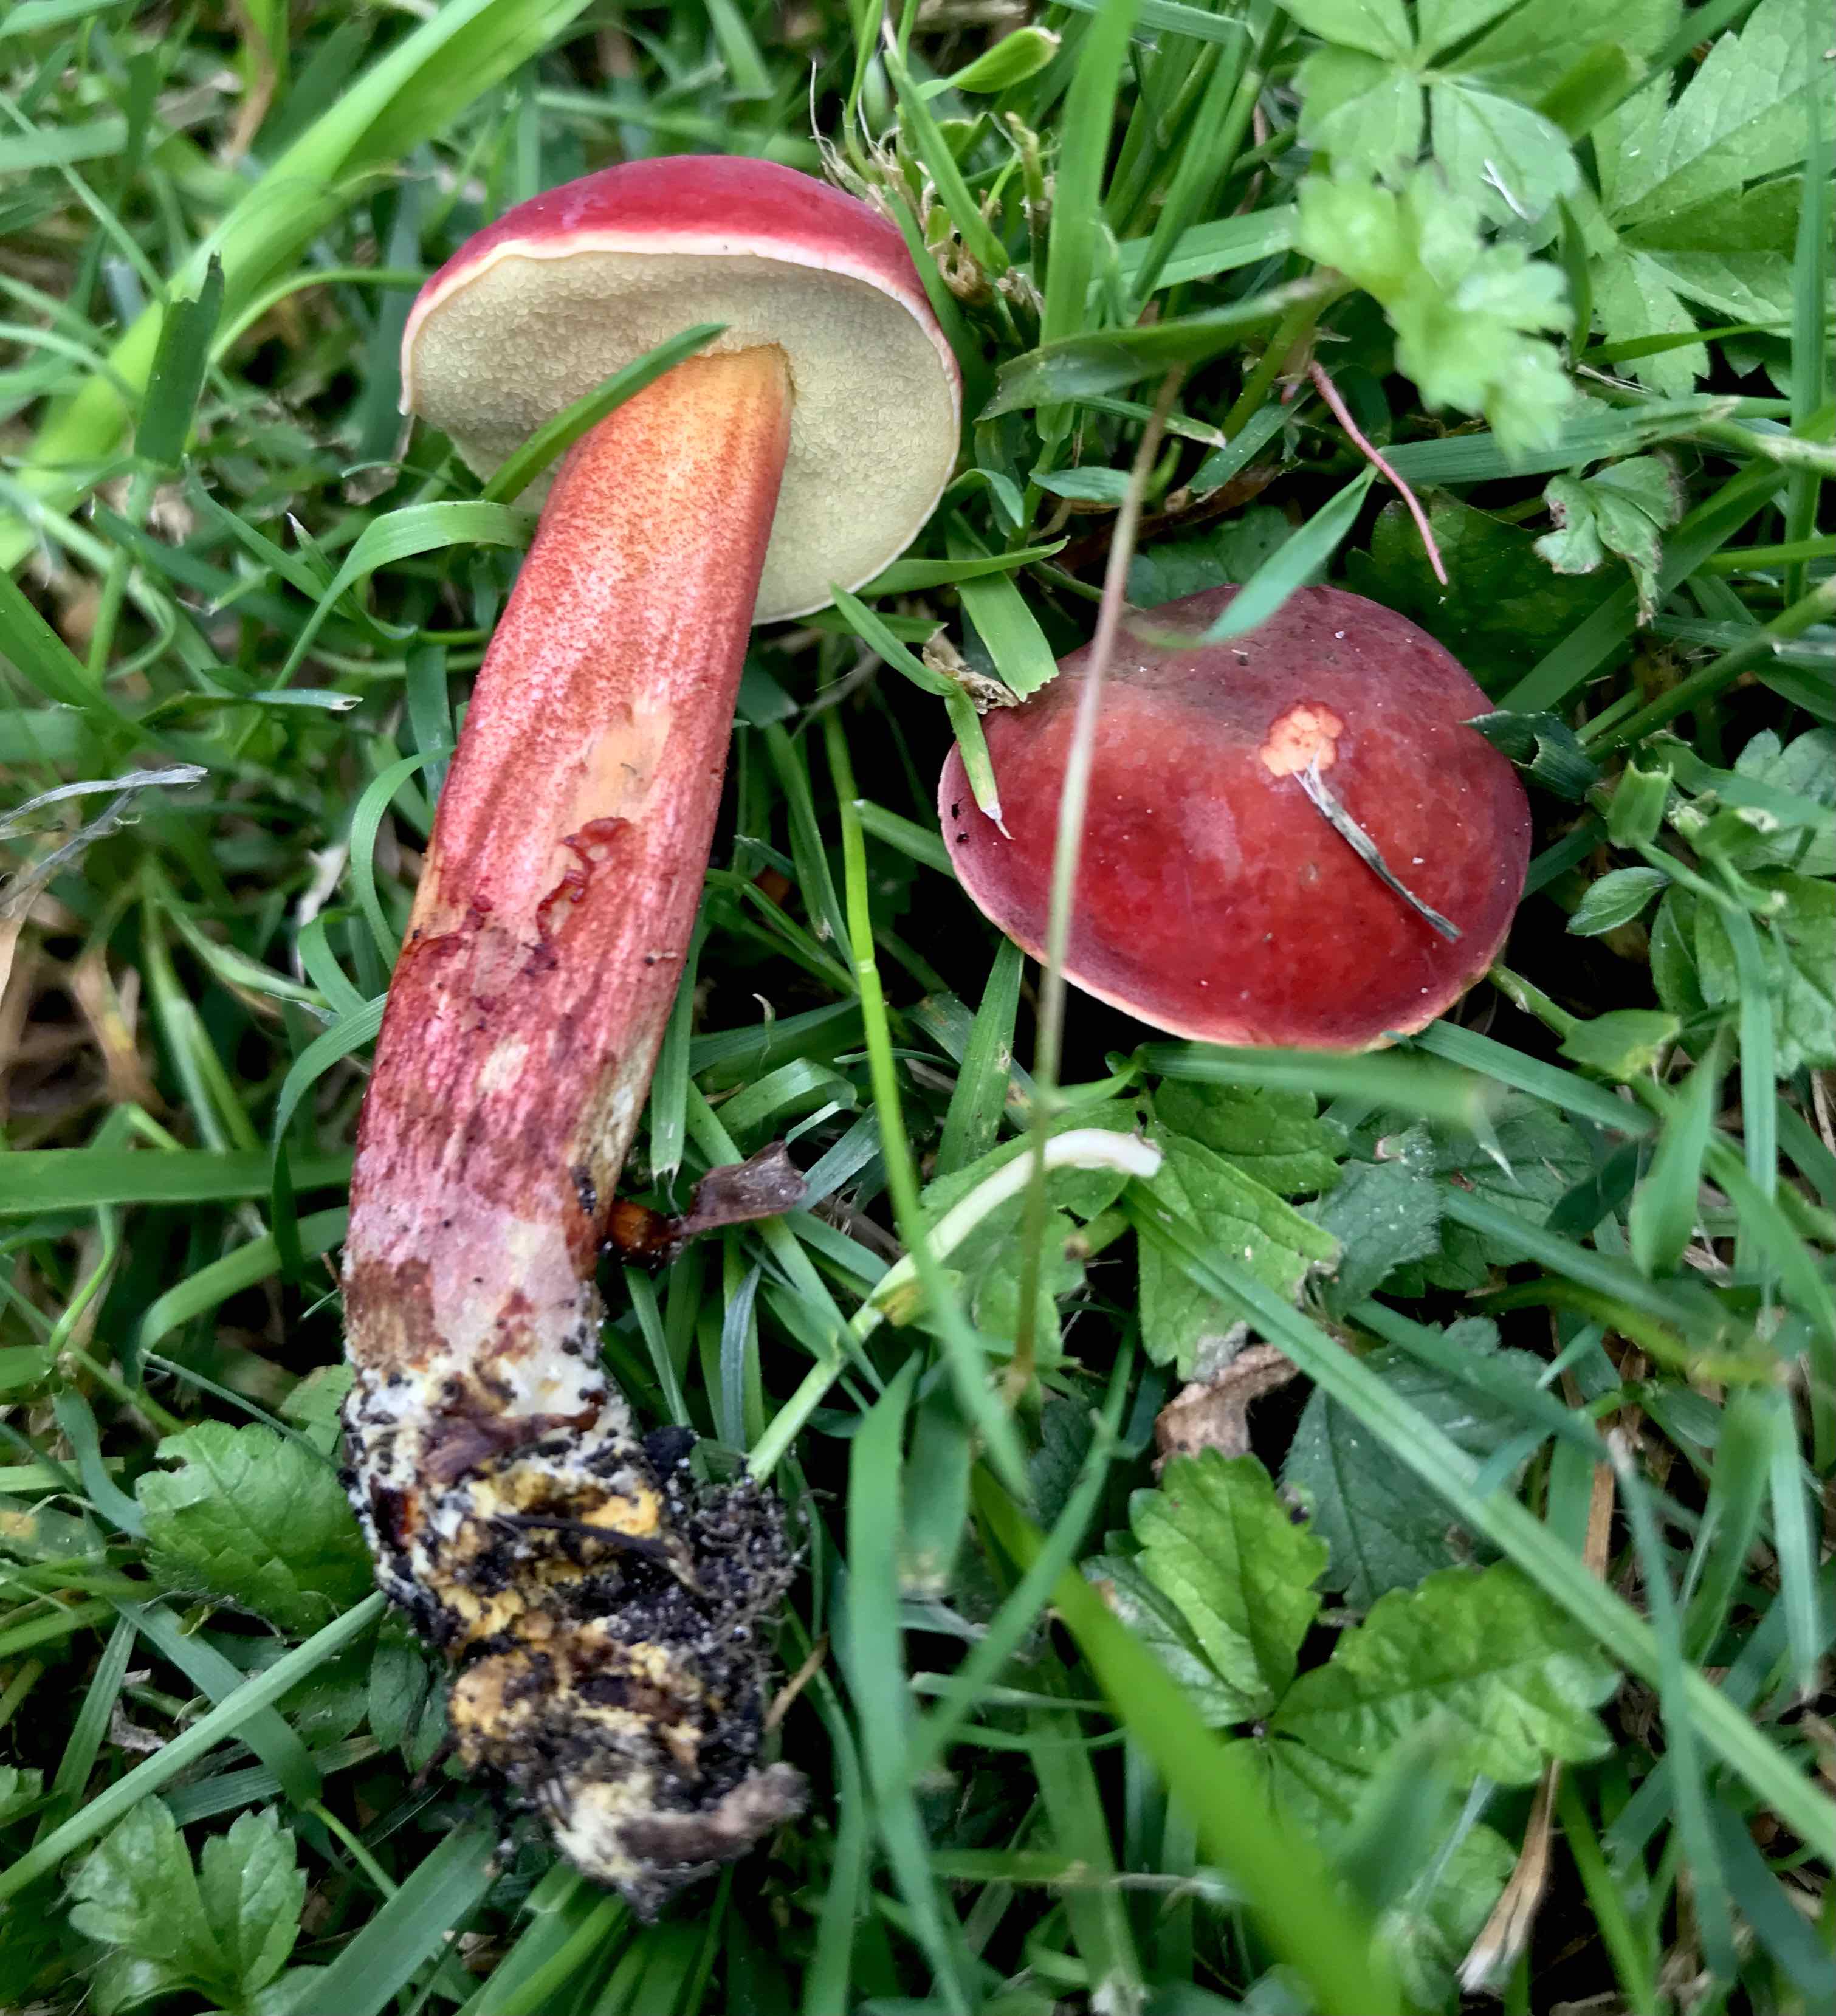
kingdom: Fungi
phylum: Basidiomycota
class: Agaricomycetes
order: Boletales
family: Boletaceae
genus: Hortiboletus
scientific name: Hortiboletus rubellus
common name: blodrød rørhat
